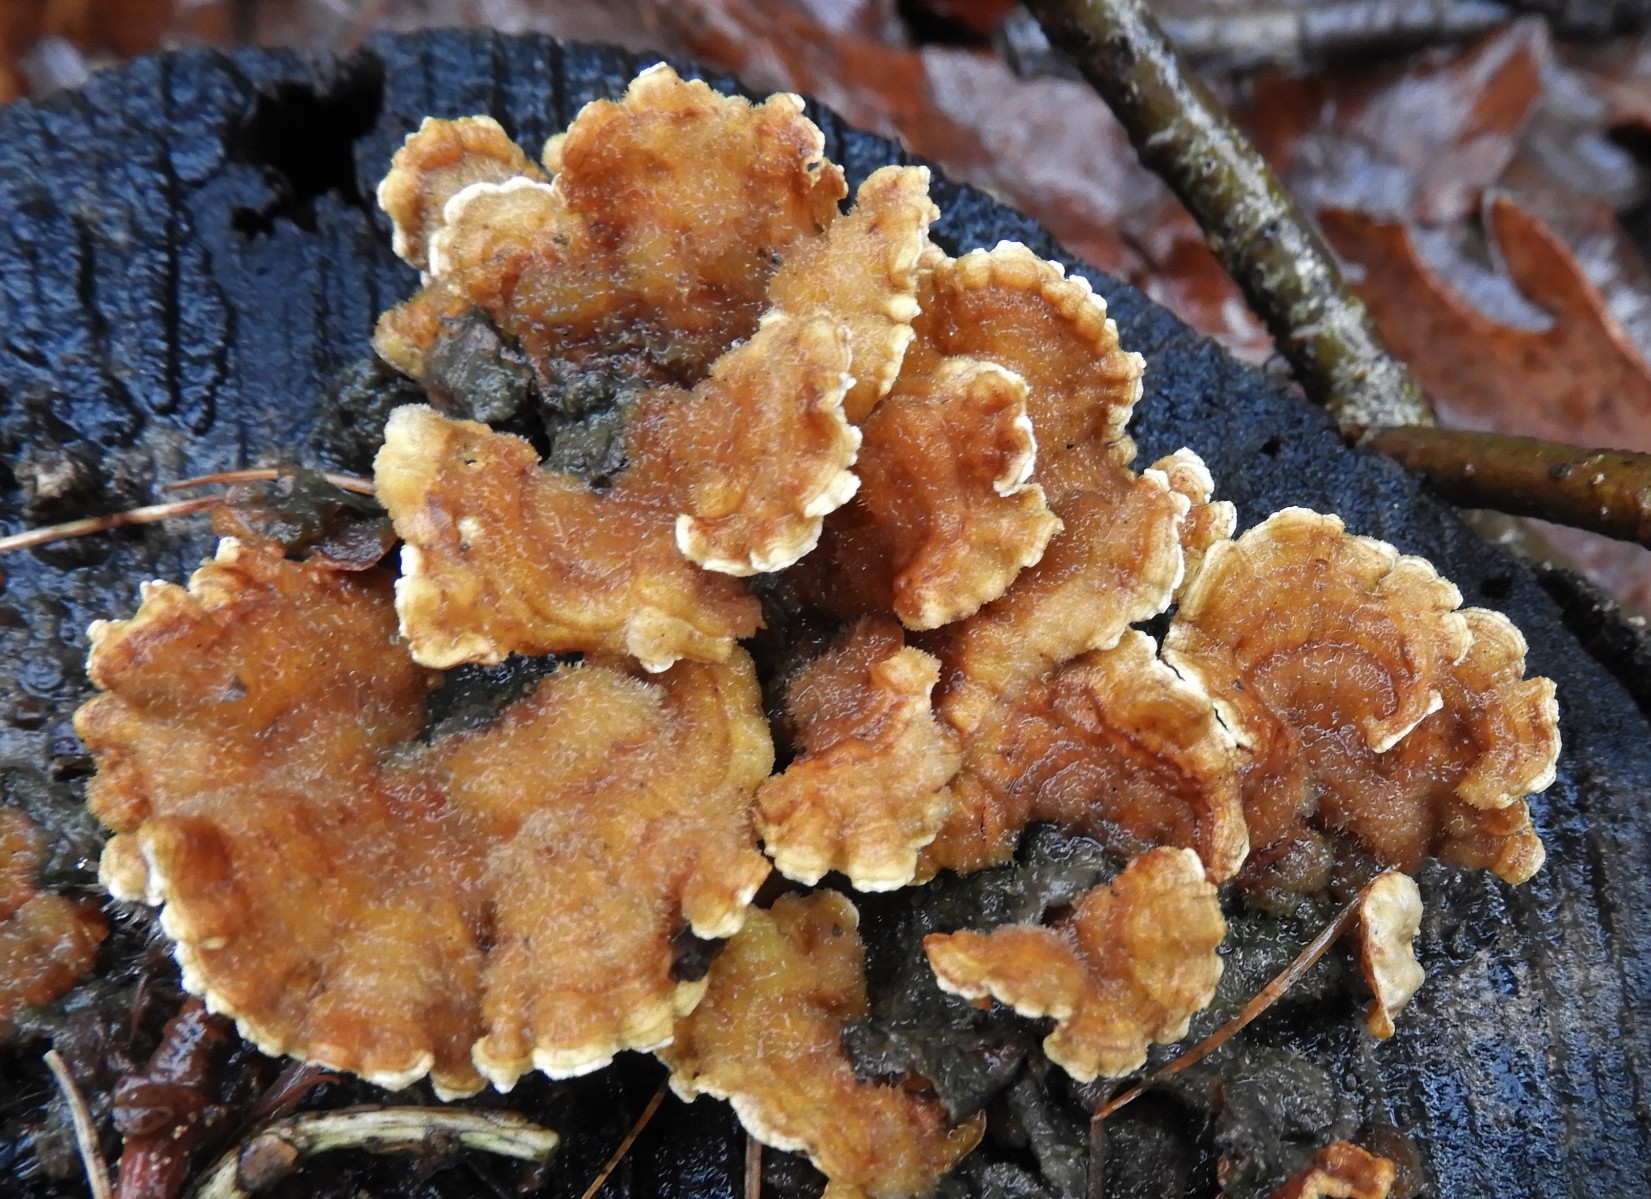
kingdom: Fungi
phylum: Basidiomycota
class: Agaricomycetes
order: Russulales
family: Stereaceae
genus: Stereum
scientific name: Stereum hirsutum
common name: håret lædersvamp
